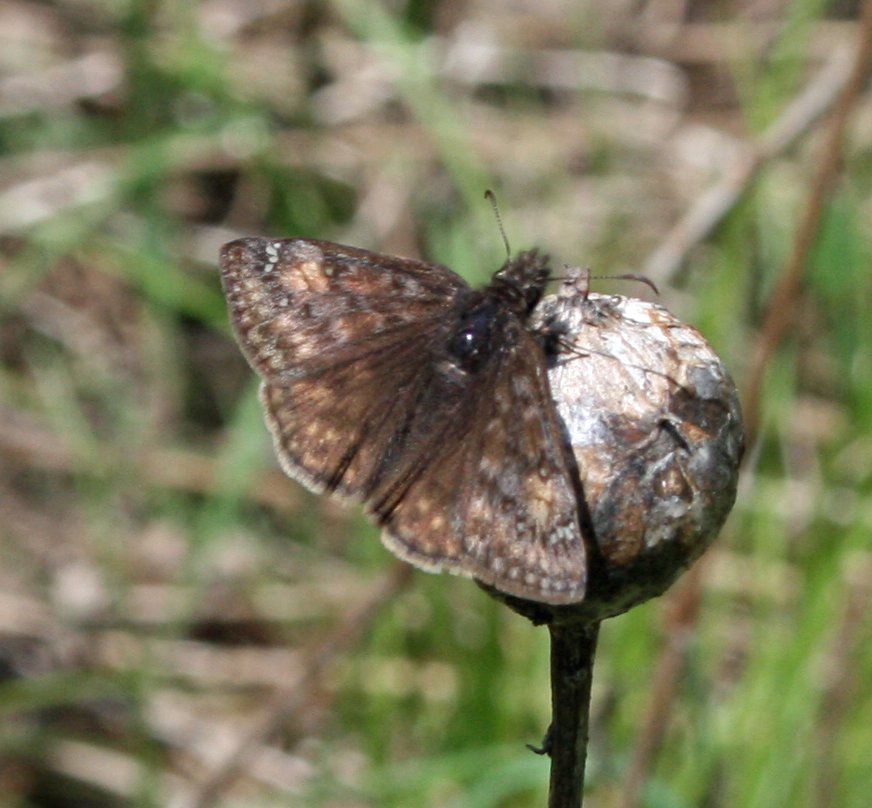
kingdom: Animalia
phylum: Arthropoda
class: Insecta
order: Lepidoptera
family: Hesperiidae
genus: Gesta
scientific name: Gesta
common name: Juvenal's Duskywing
